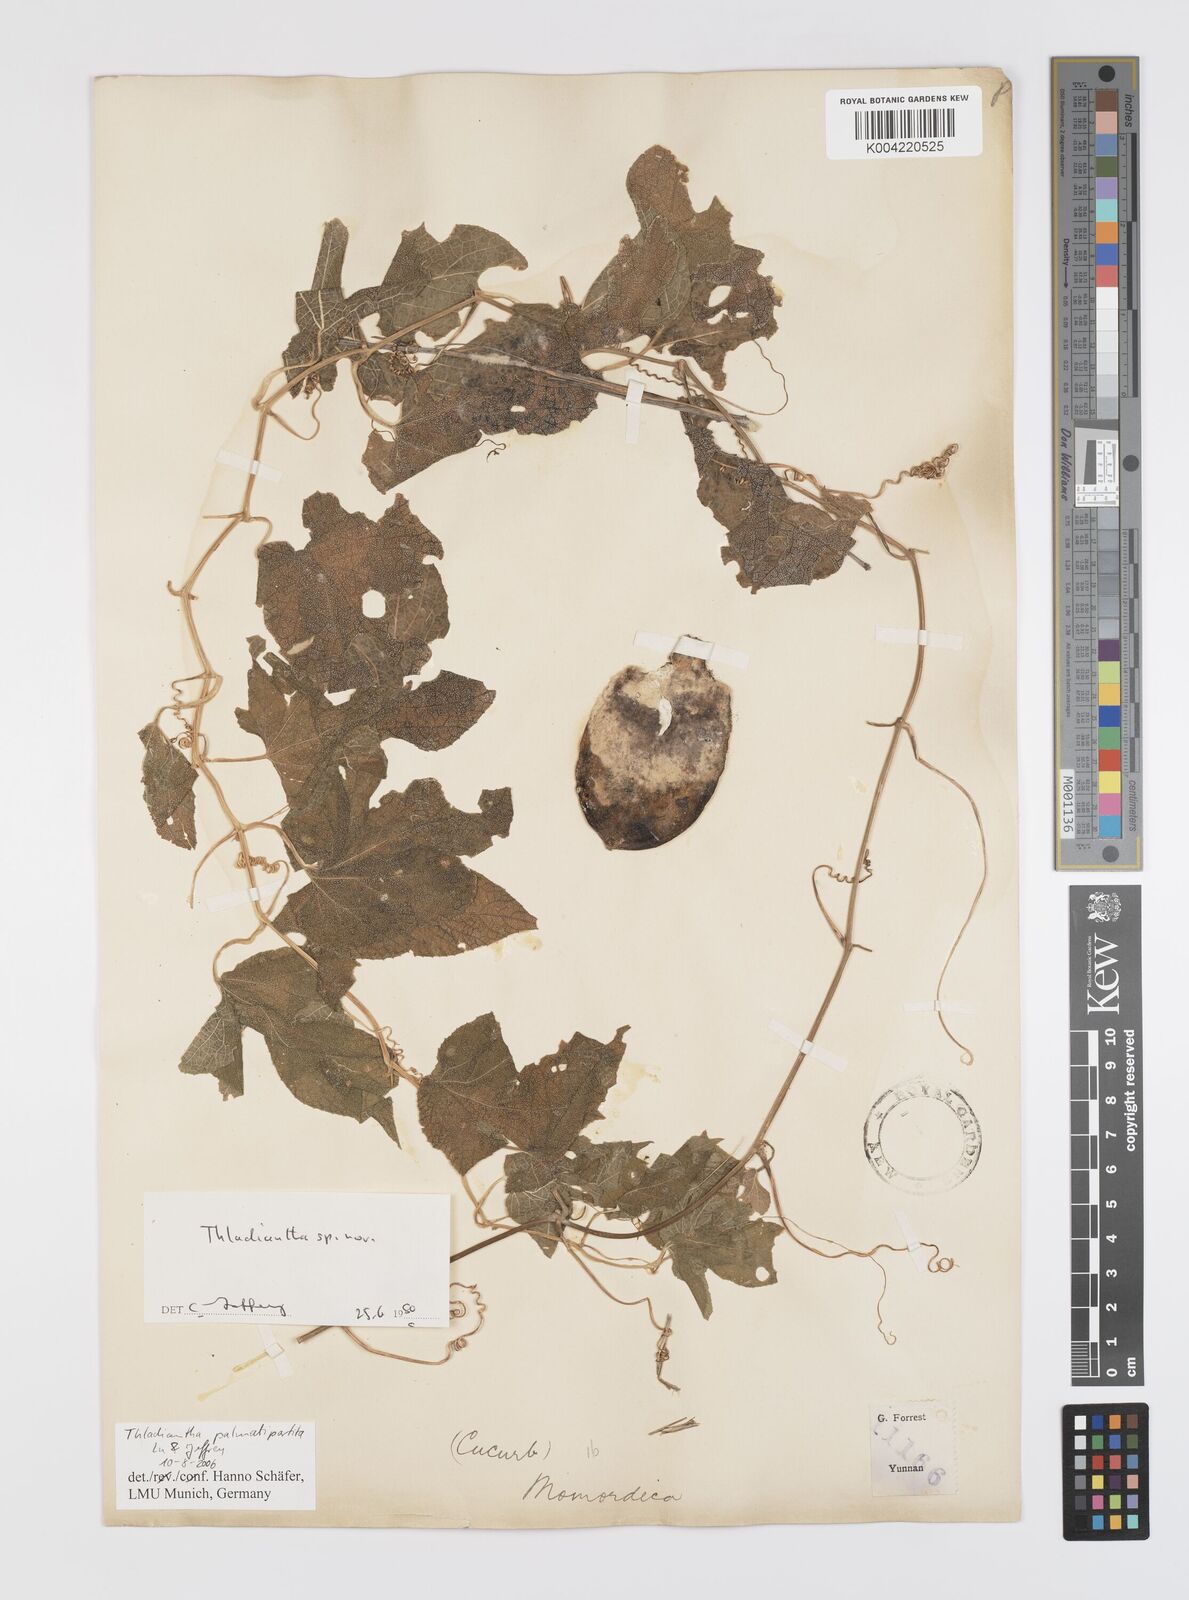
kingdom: Plantae
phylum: Tracheophyta
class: Magnoliopsida
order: Cucurbitales
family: Cucurbitaceae
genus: Thladiantha
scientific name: Thladiantha palmatipartita
